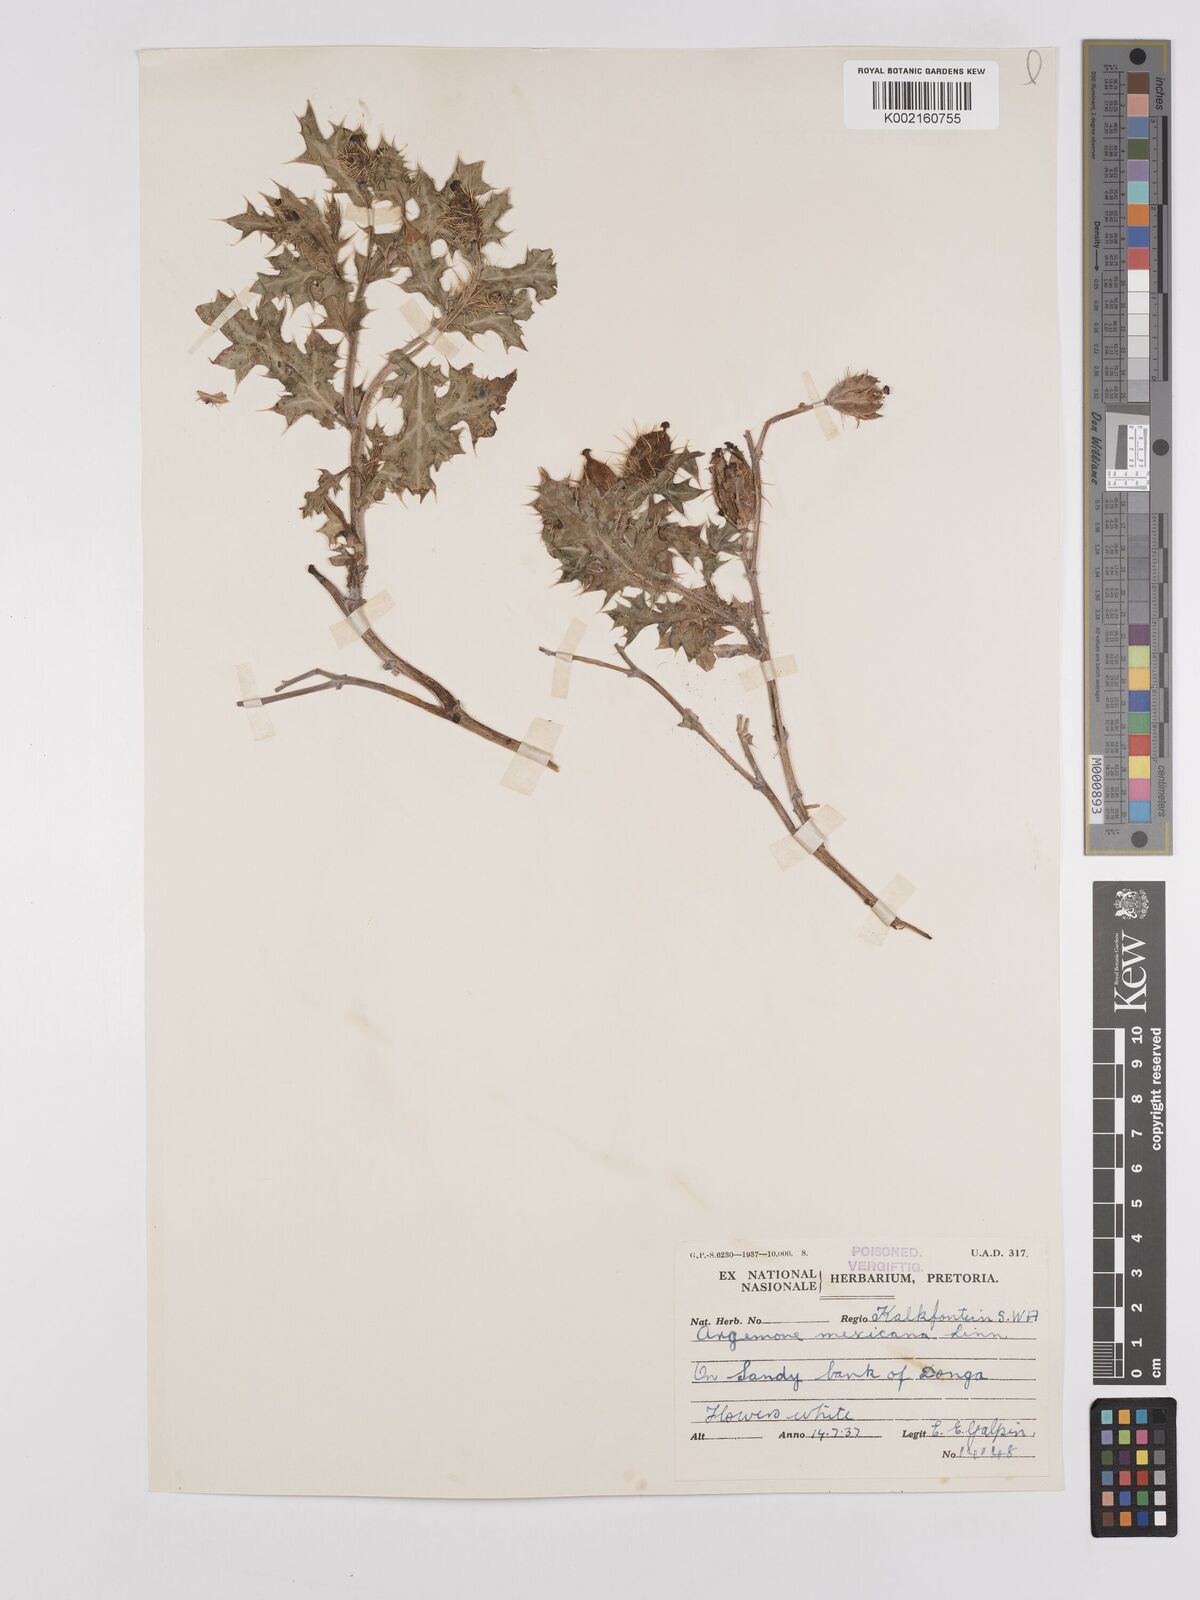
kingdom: Plantae
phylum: Tracheophyta
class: Magnoliopsida
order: Ranunculales
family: Papaveraceae
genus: Argemone
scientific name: Argemone mexicana
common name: Mexican poppy
